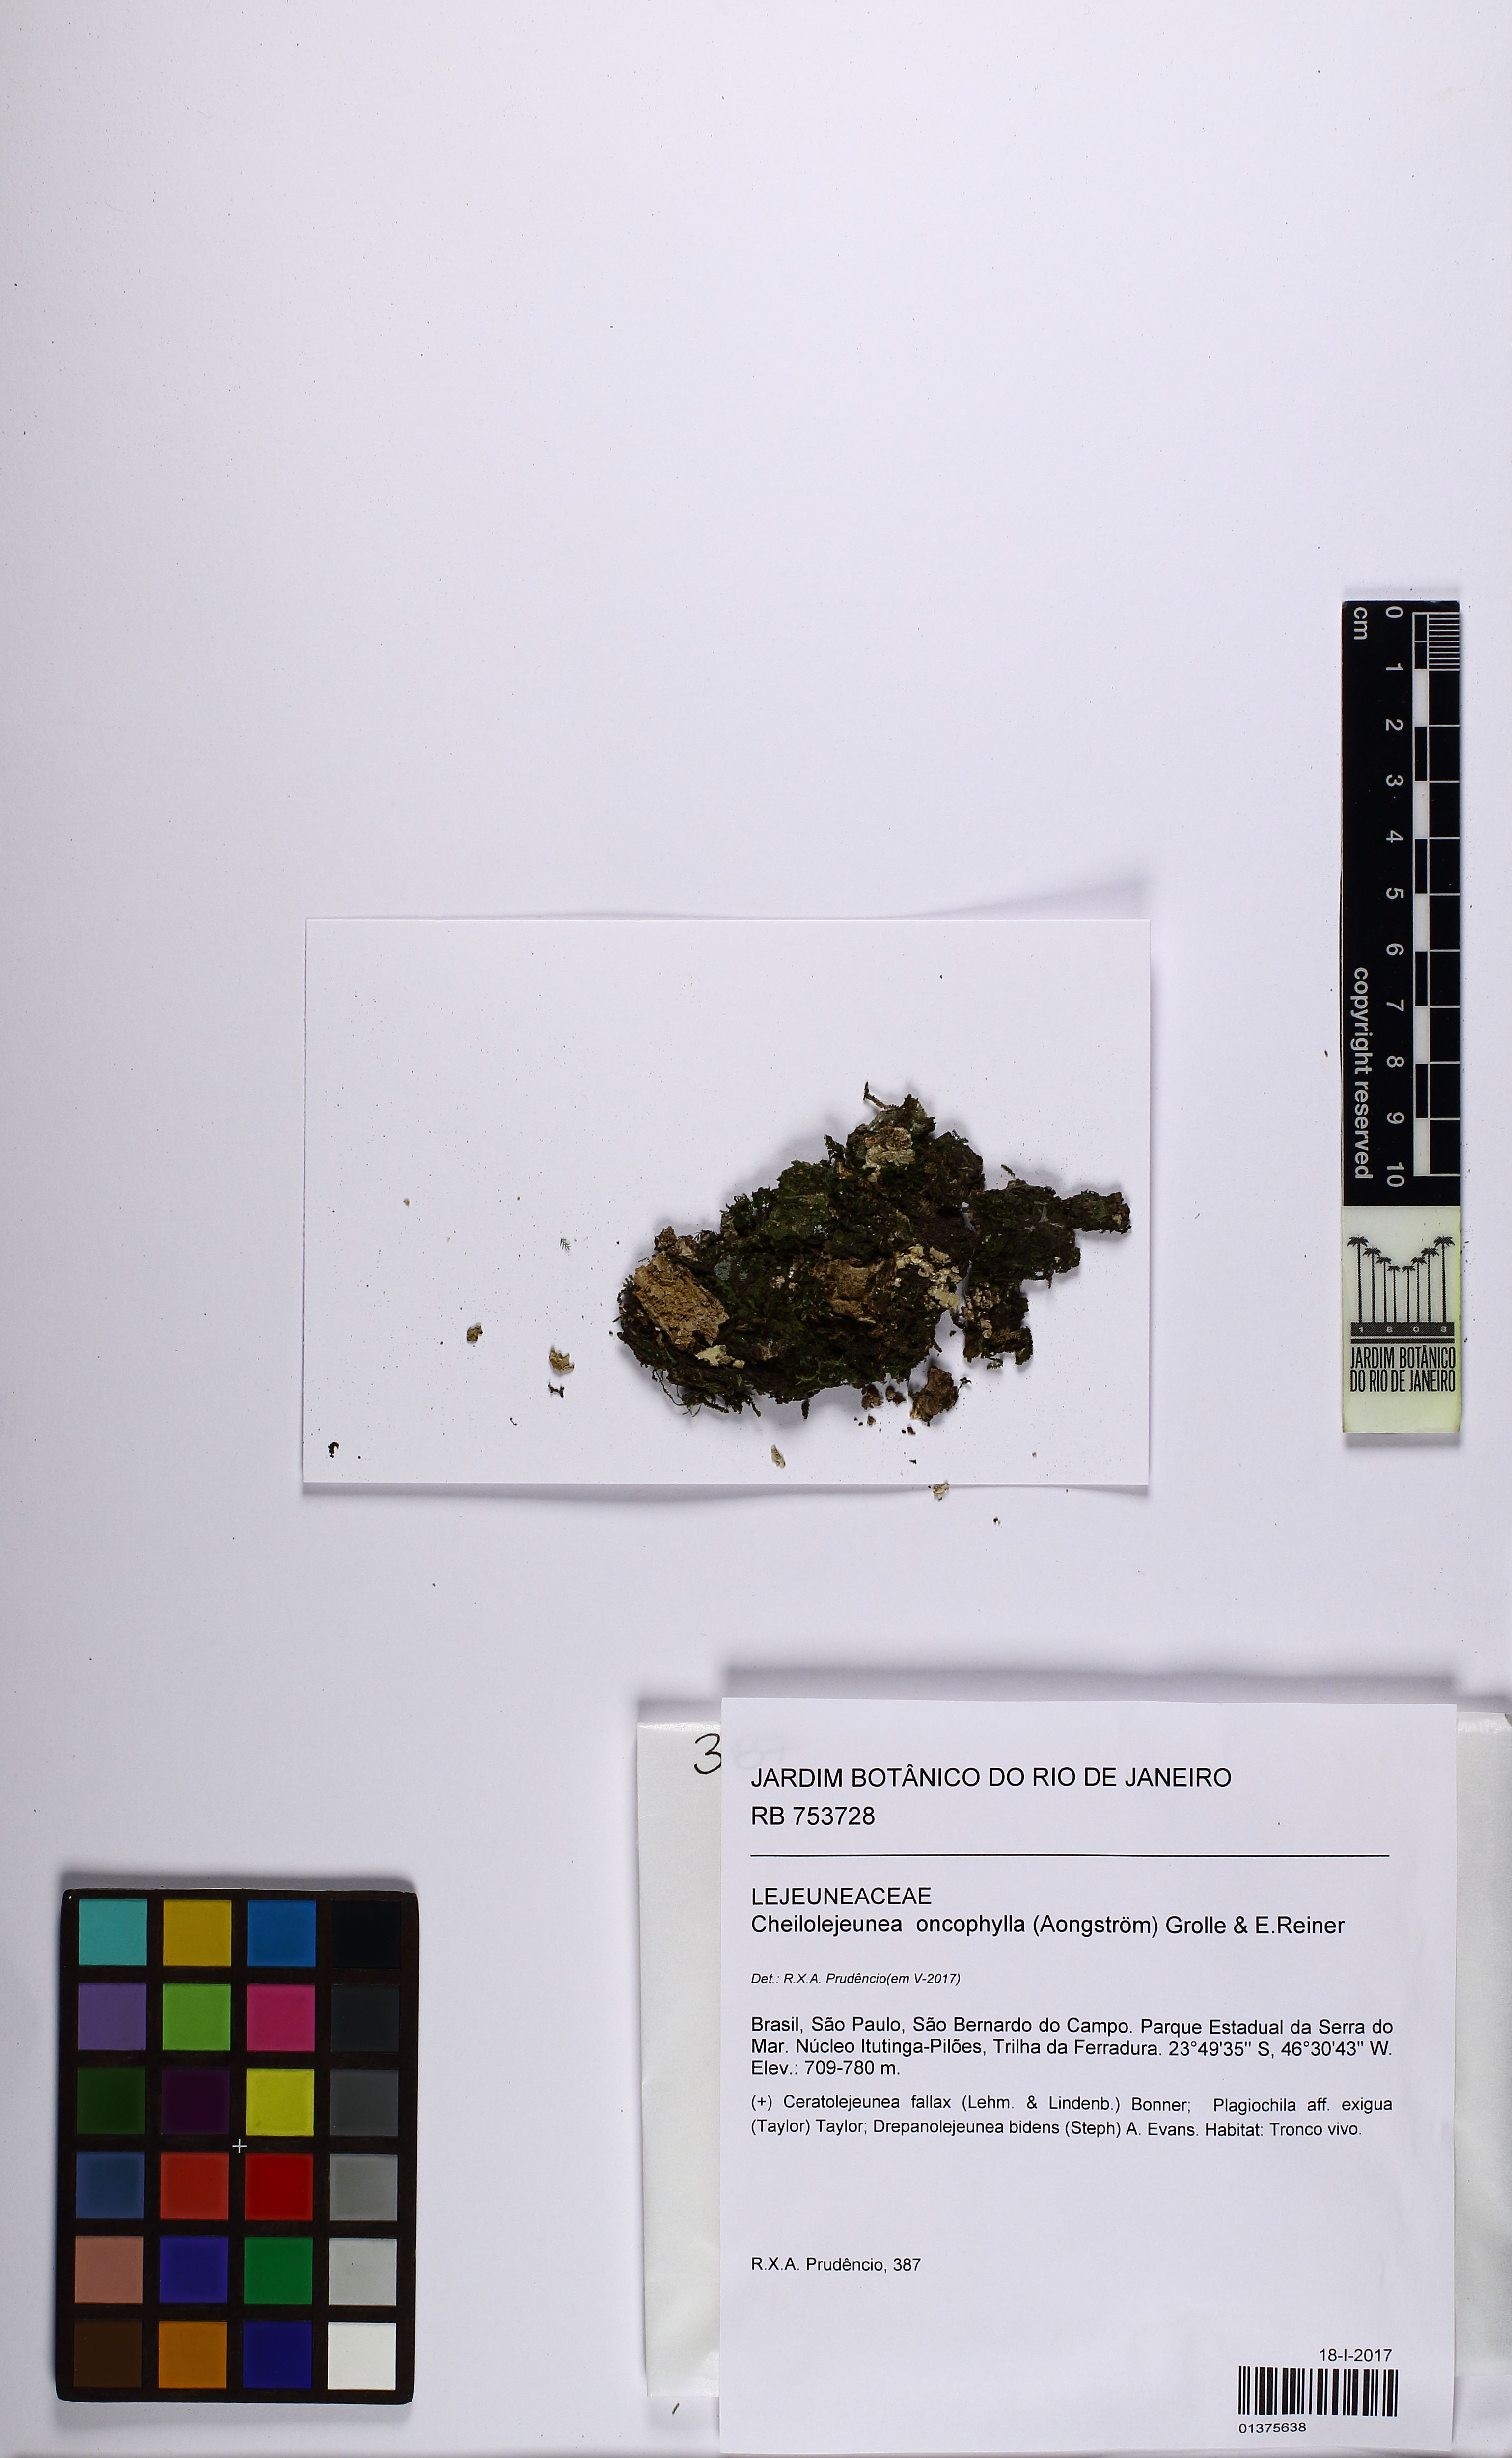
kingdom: Plantae
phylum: Marchantiophyta
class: Jungermanniopsida
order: Porellales
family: Lejeuneaceae
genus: Cheilolejeunea
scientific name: Cheilolejeunea lobulata
